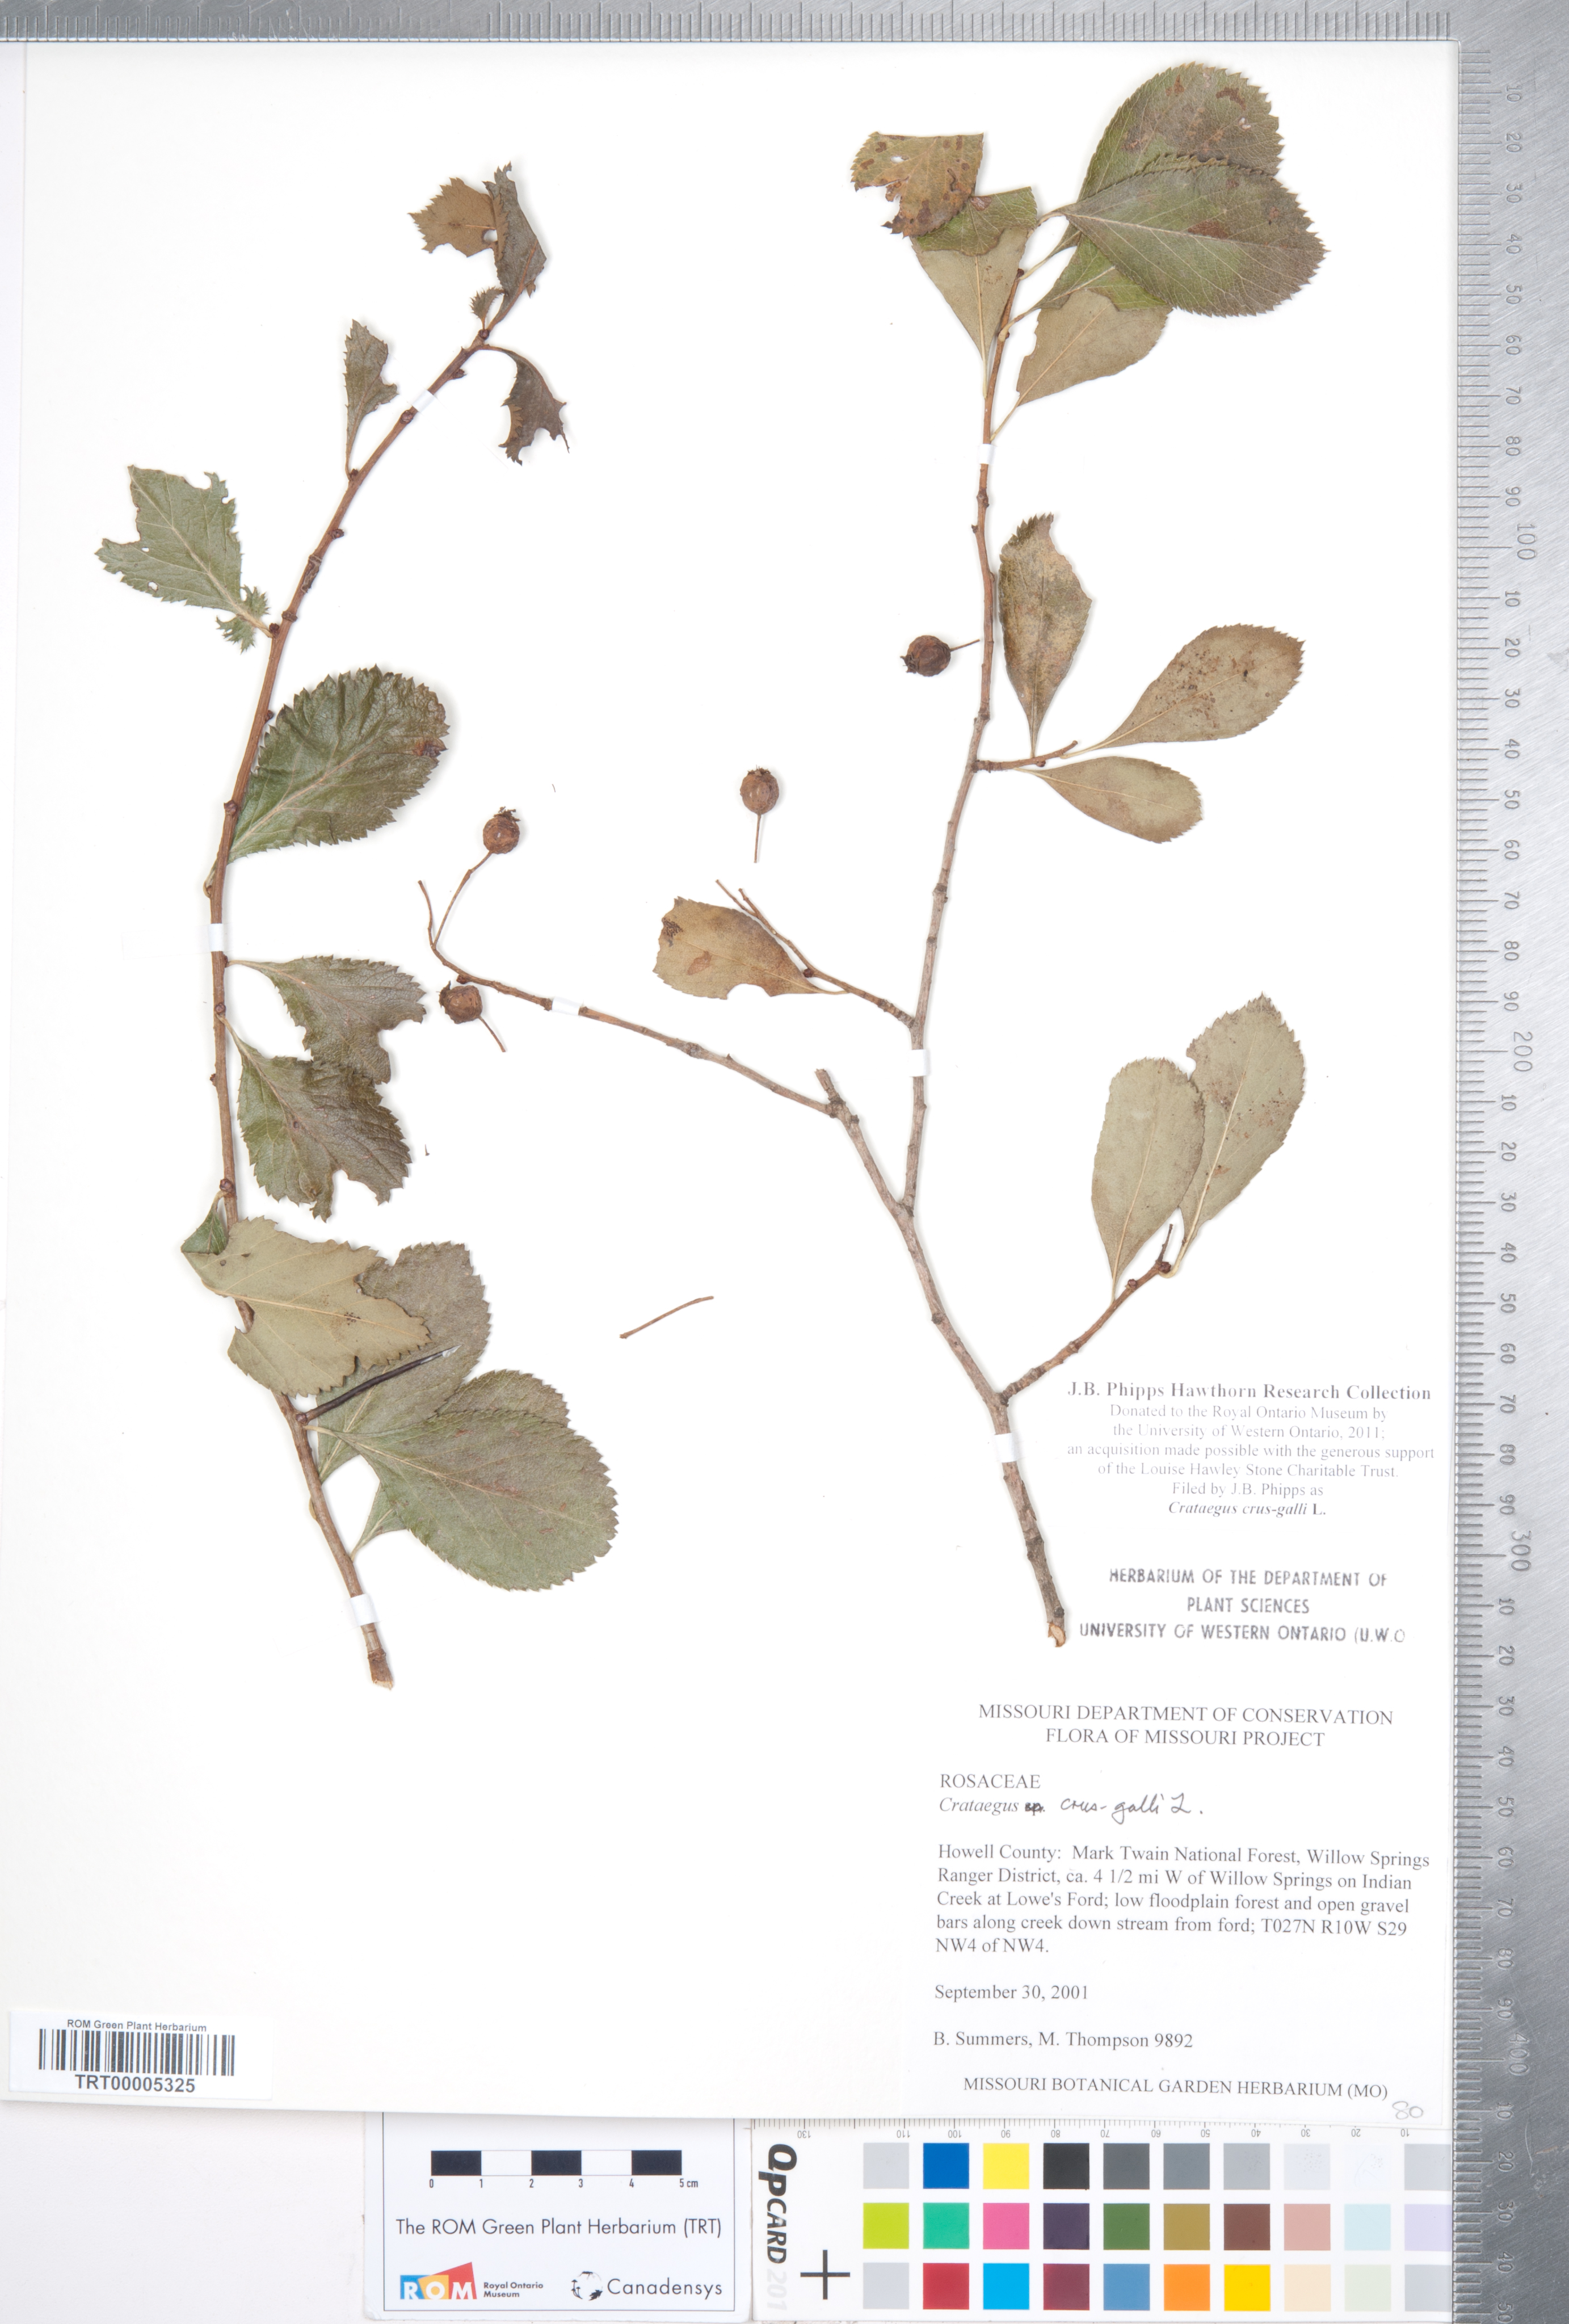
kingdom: Plantae
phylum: Tracheophyta
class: Magnoliopsida
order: Rosales
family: Rosaceae
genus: Crataegus
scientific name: Crataegus crus-galli
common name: Cockspurthorn
